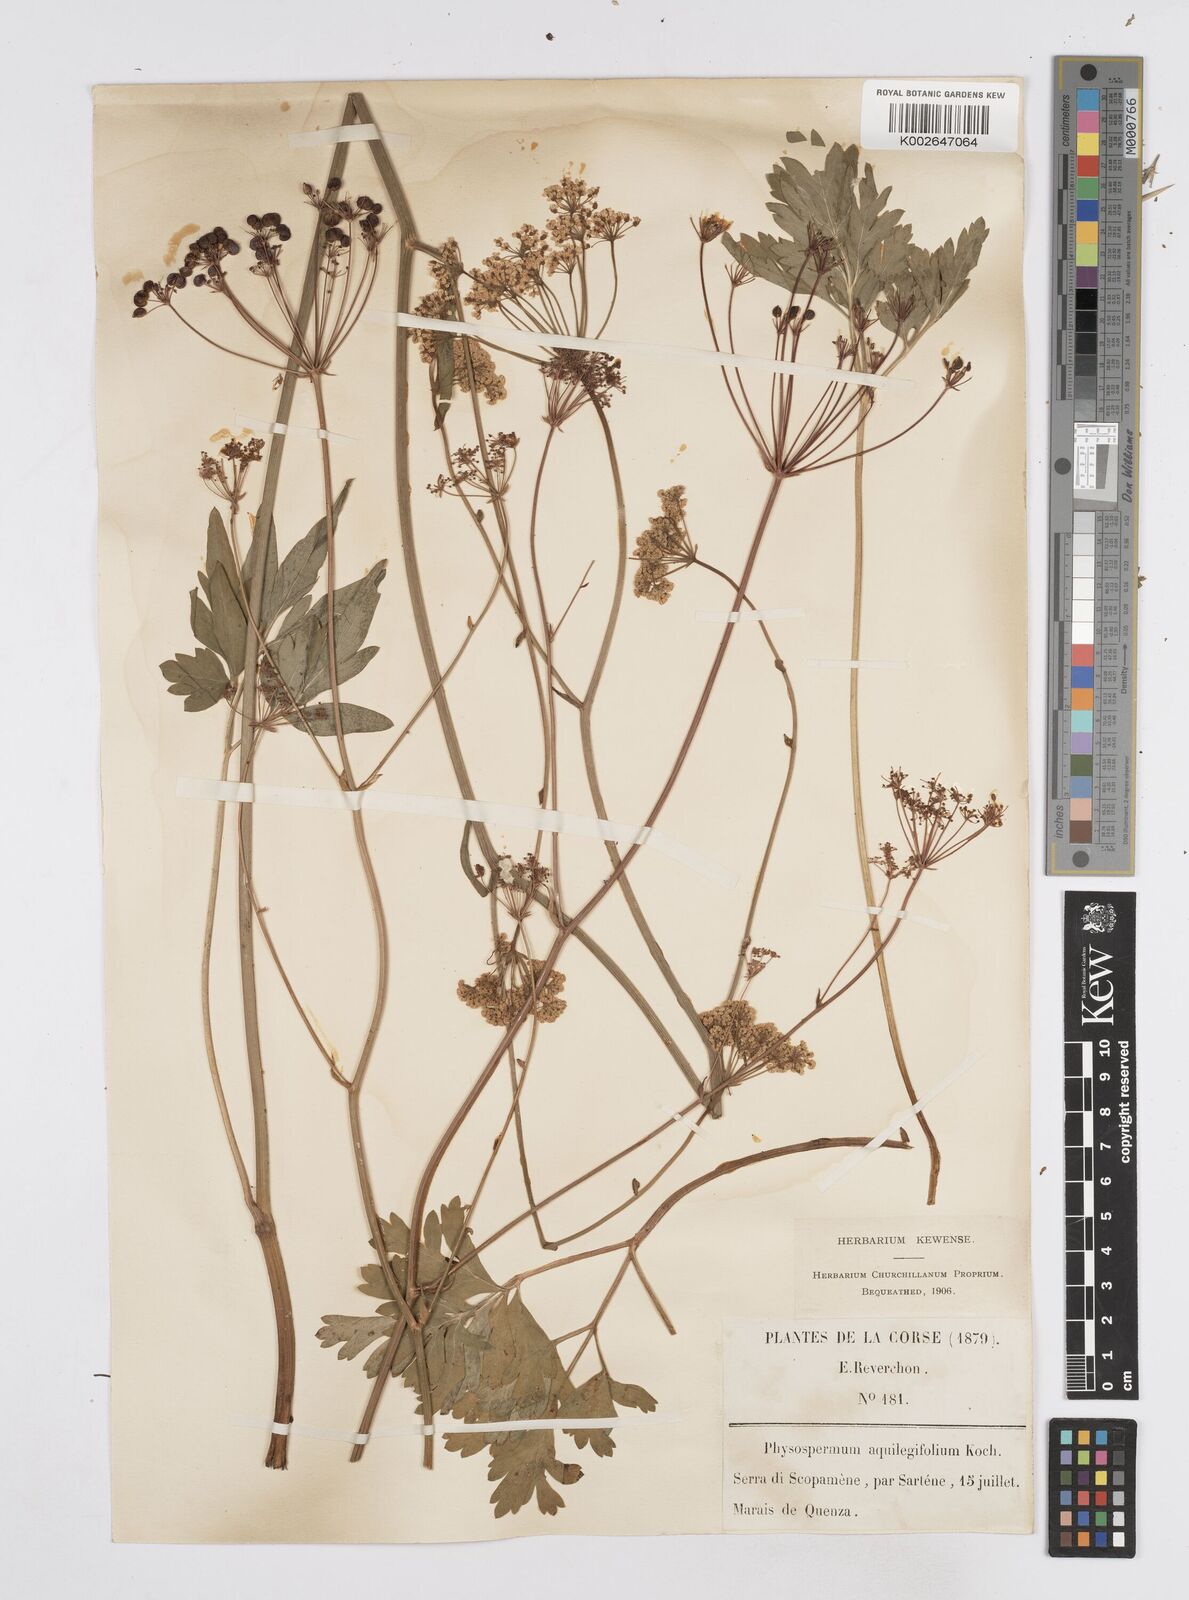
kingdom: Plantae
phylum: Tracheophyta
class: Magnoliopsida
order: Apiales
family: Apiaceae
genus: Physospermum
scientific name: Physospermum cornubiense
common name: Bladderseed
